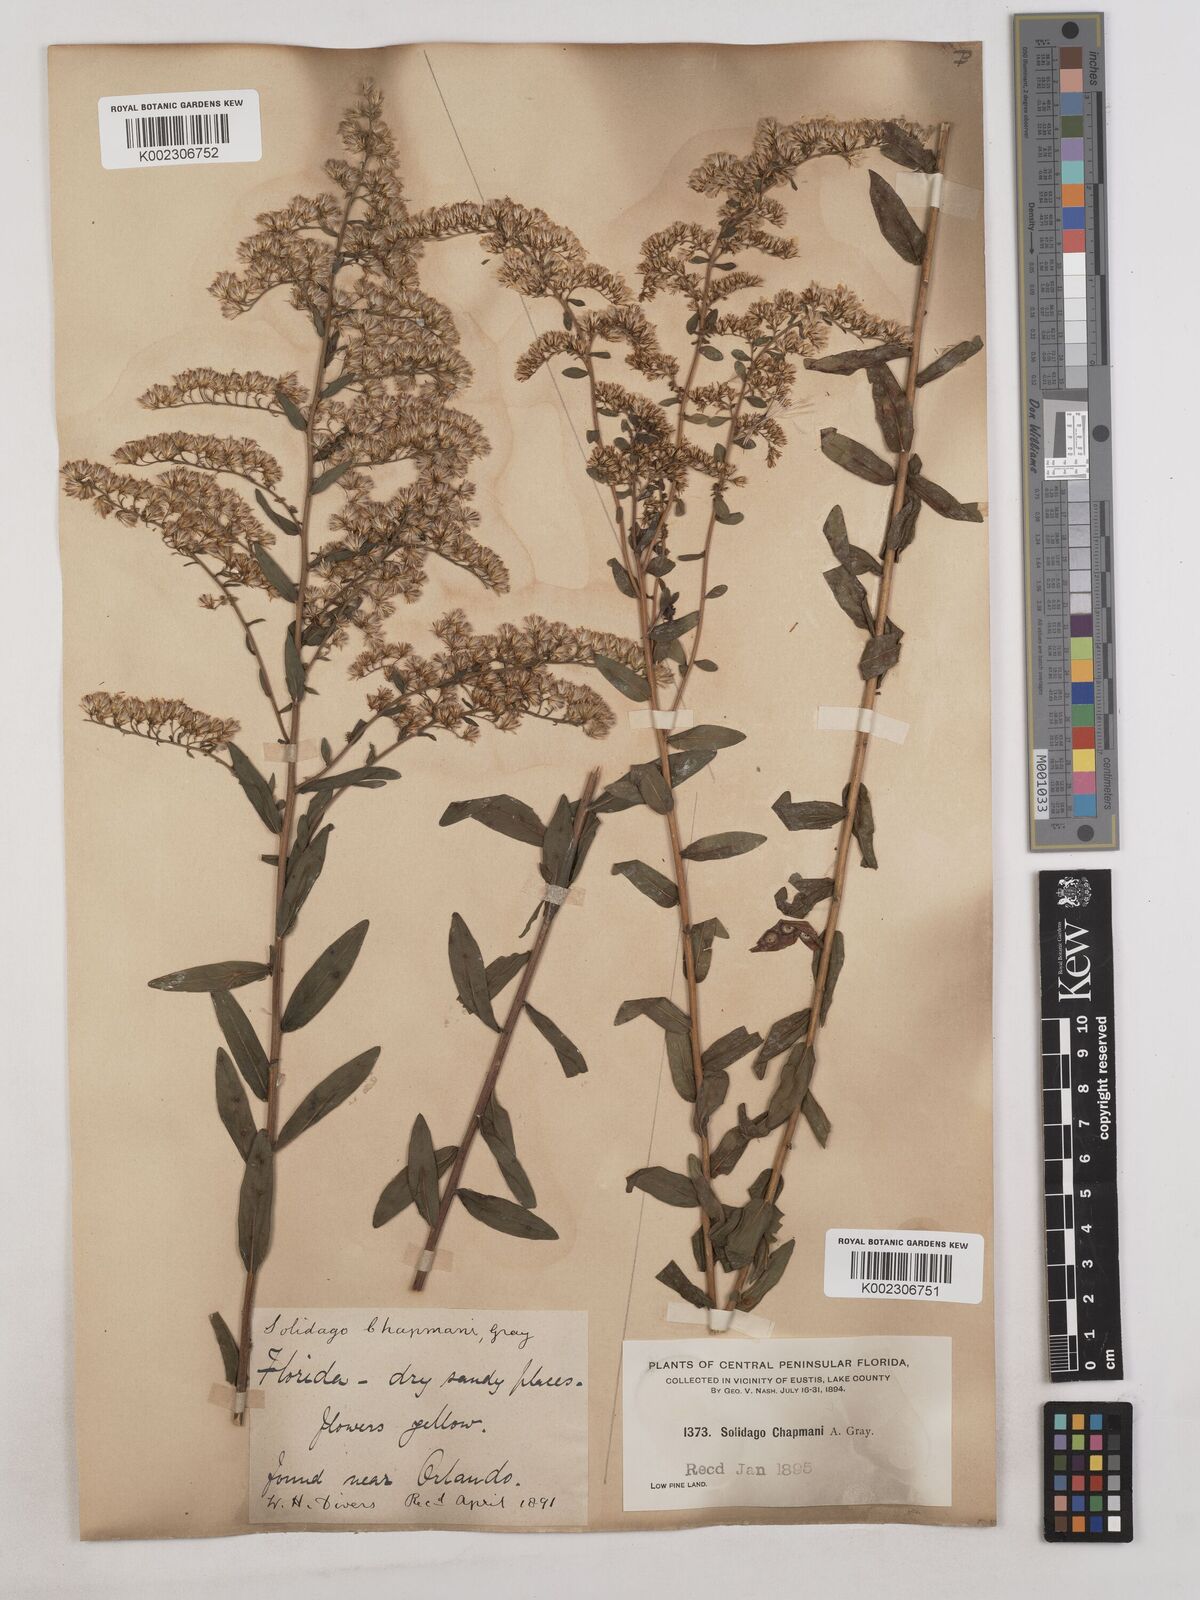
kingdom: Plantae
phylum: Tracheophyta
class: Magnoliopsida
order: Asterales
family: Asteraceae
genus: Solidago
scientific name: Solidago chapmanii
